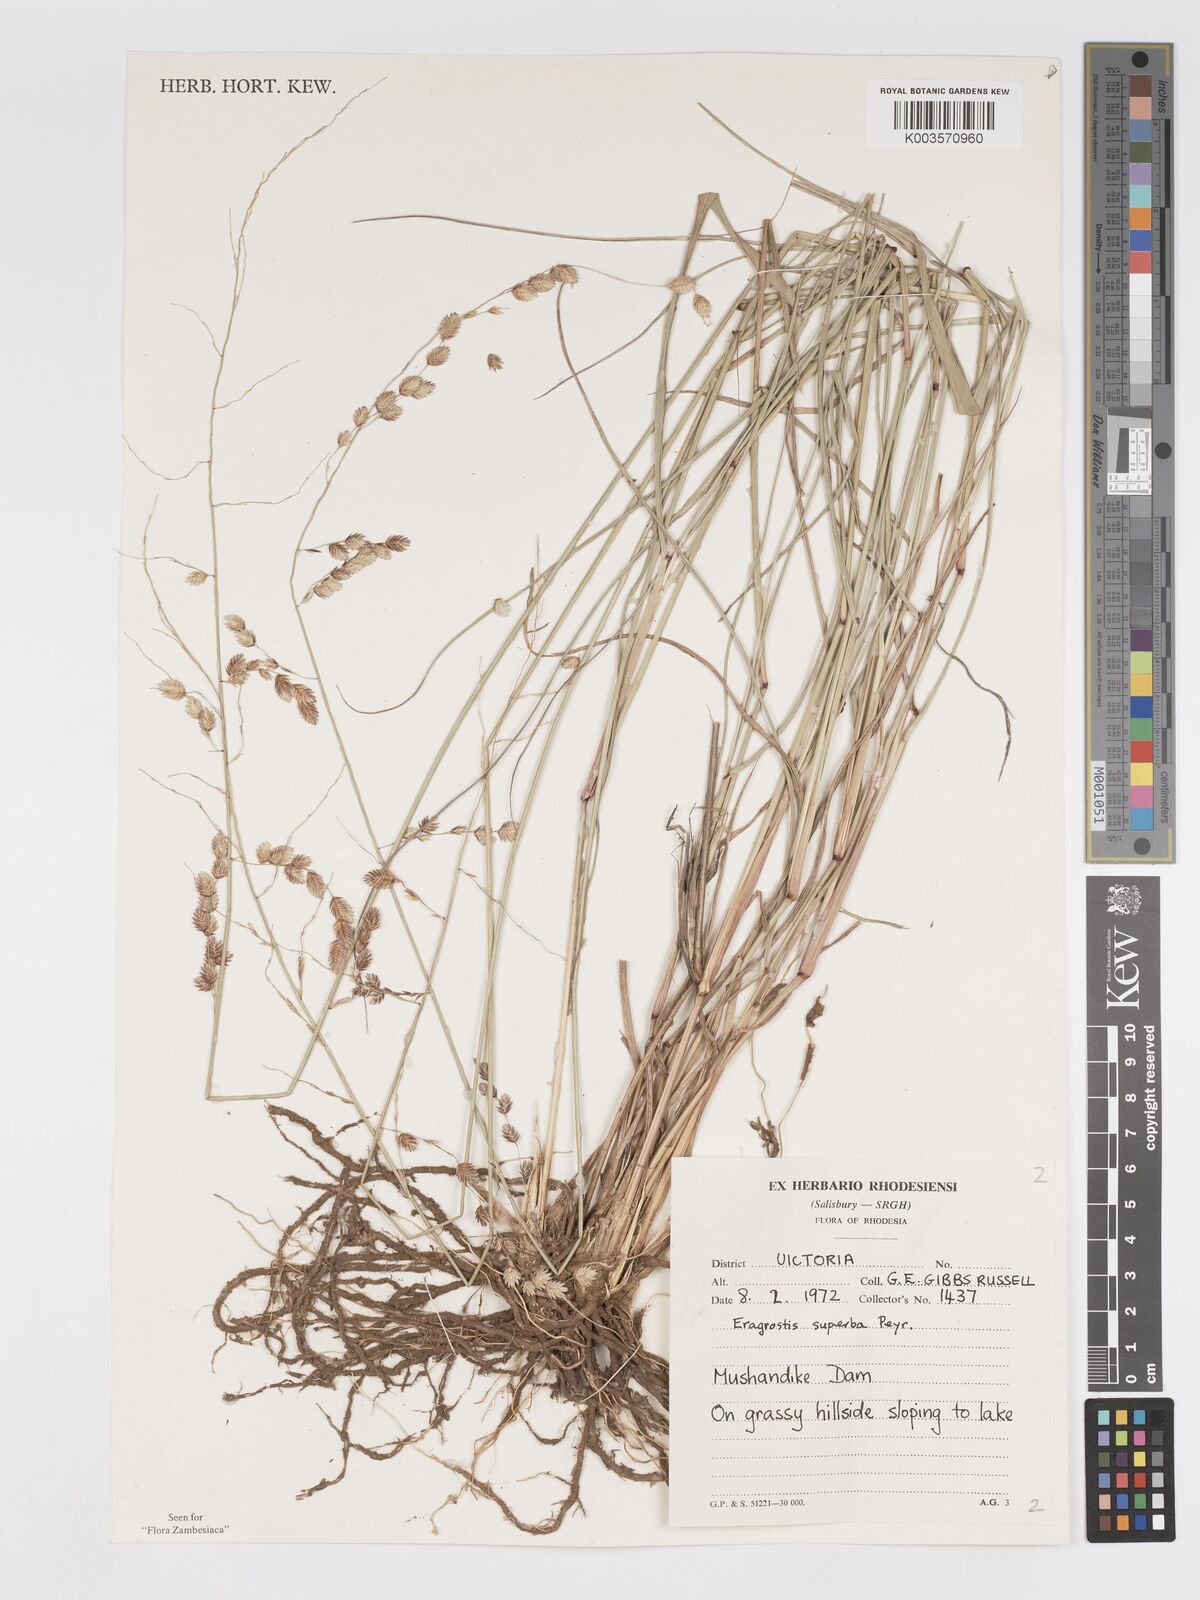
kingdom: Plantae
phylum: Tracheophyta
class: Liliopsida
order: Poales
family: Poaceae
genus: Eragrostis
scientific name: Eragrostis superba
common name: Wilman lovegrass
